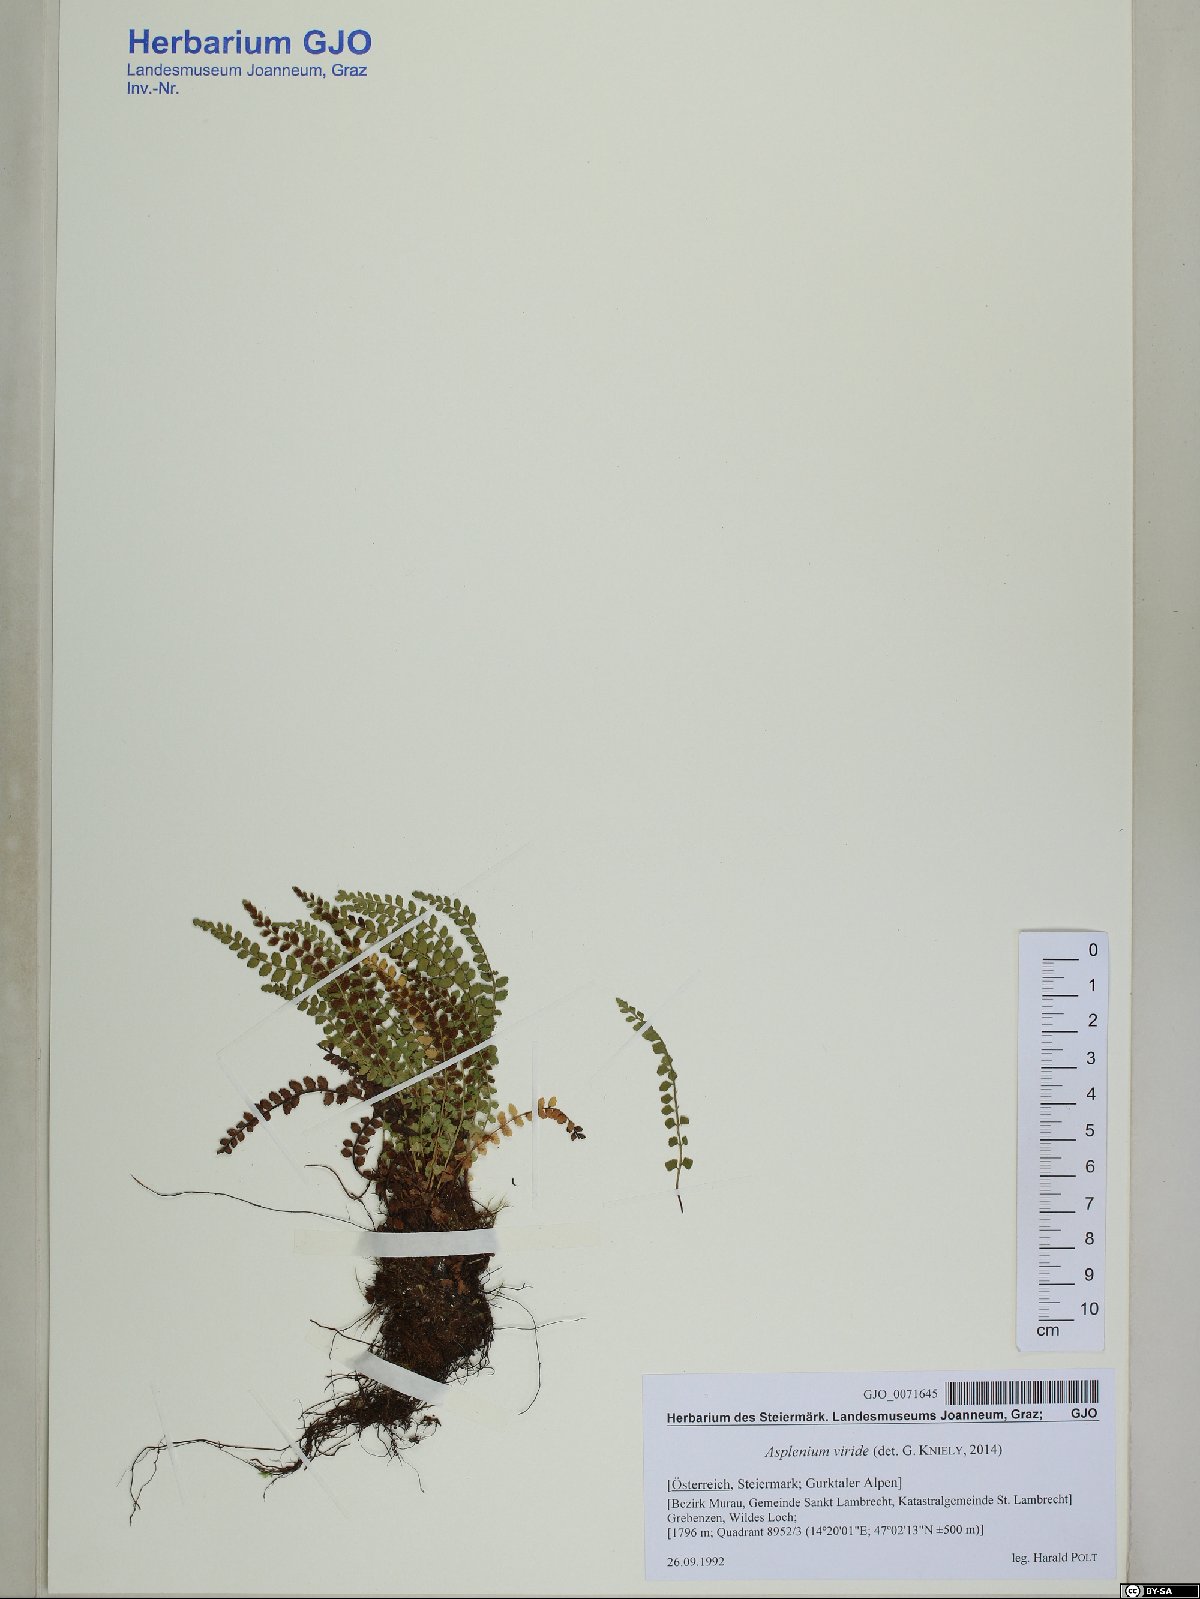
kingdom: Plantae
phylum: Tracheophyta
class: Polypodiopsida
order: Polypodiales
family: Aspleniaceae
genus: Asplenium
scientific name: Asplenium viride
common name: Green spleenwort
